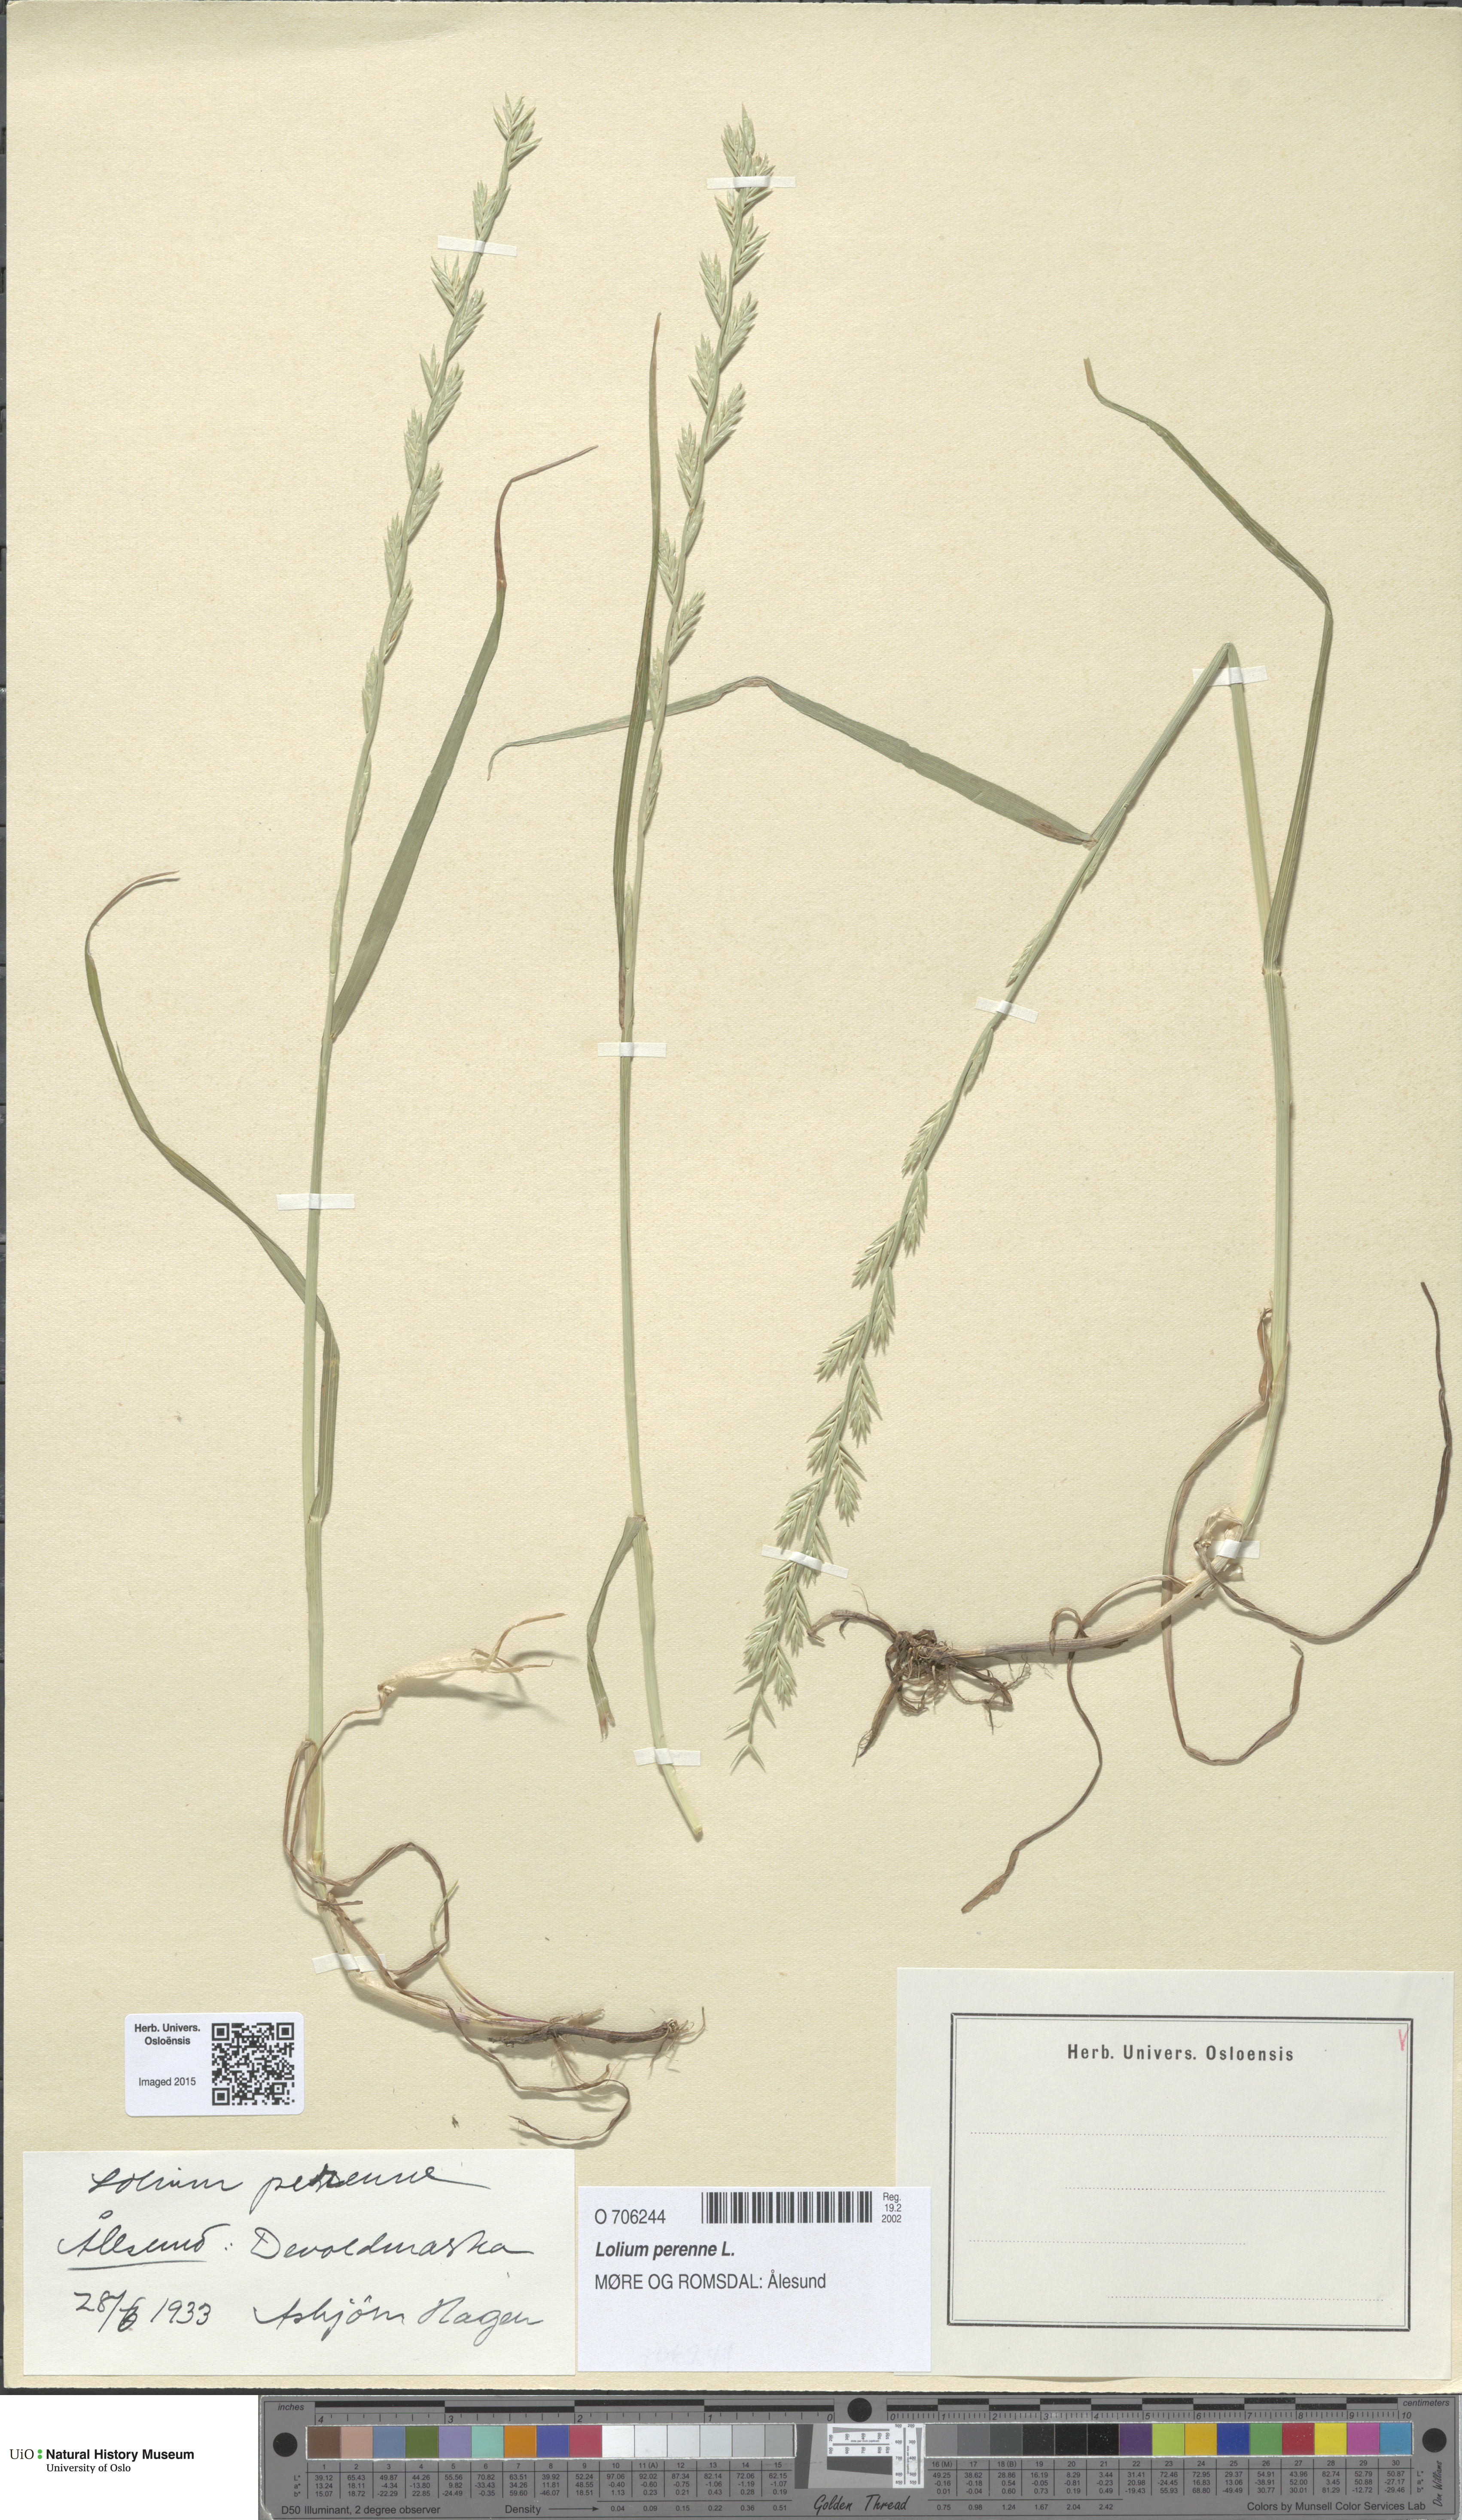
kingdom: Plantae
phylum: Tracheophyta
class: Liliopsida
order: Poales
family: Poaceae
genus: Lolium
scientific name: Lolium perenne
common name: Perennial ryegrass
